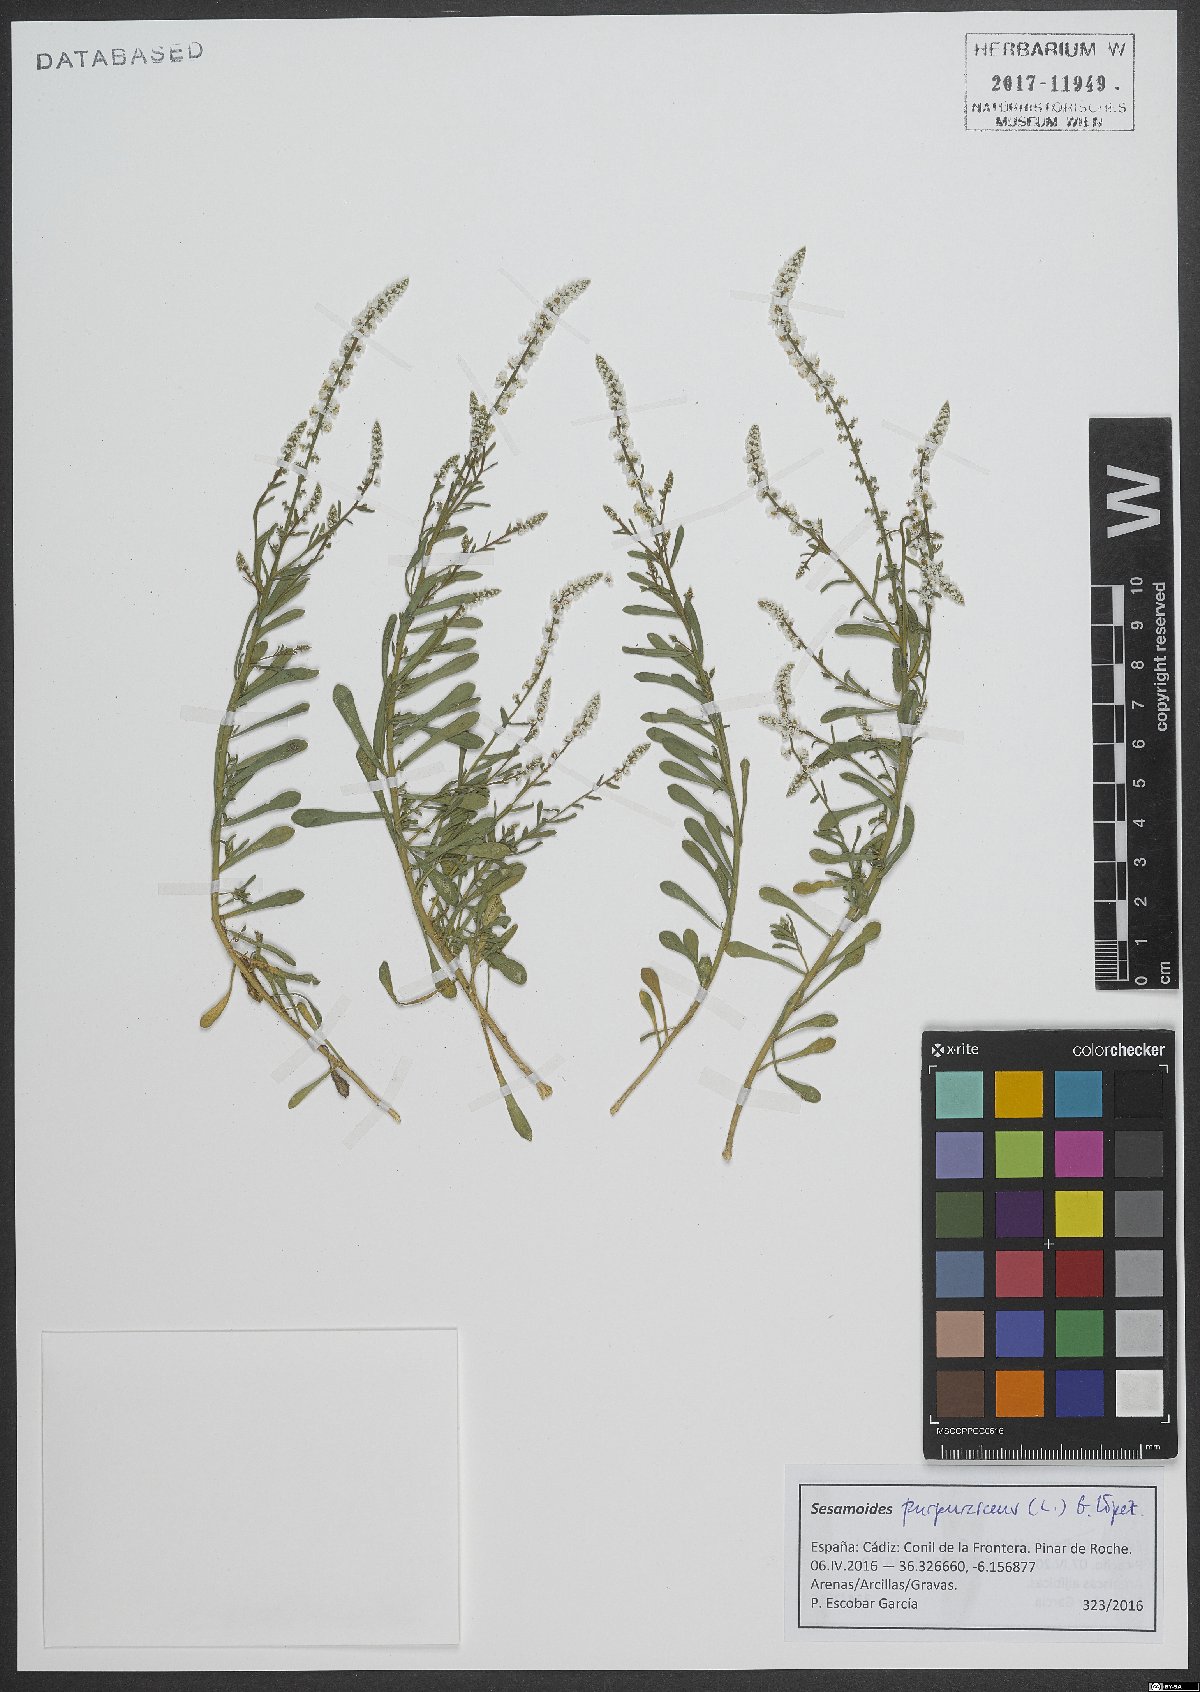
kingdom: Plantae
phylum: Tracheophyta
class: Magnoliopsida
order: Brassicales
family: Resedaceae
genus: Sesamoides
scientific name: Sesamoides purpurascens
